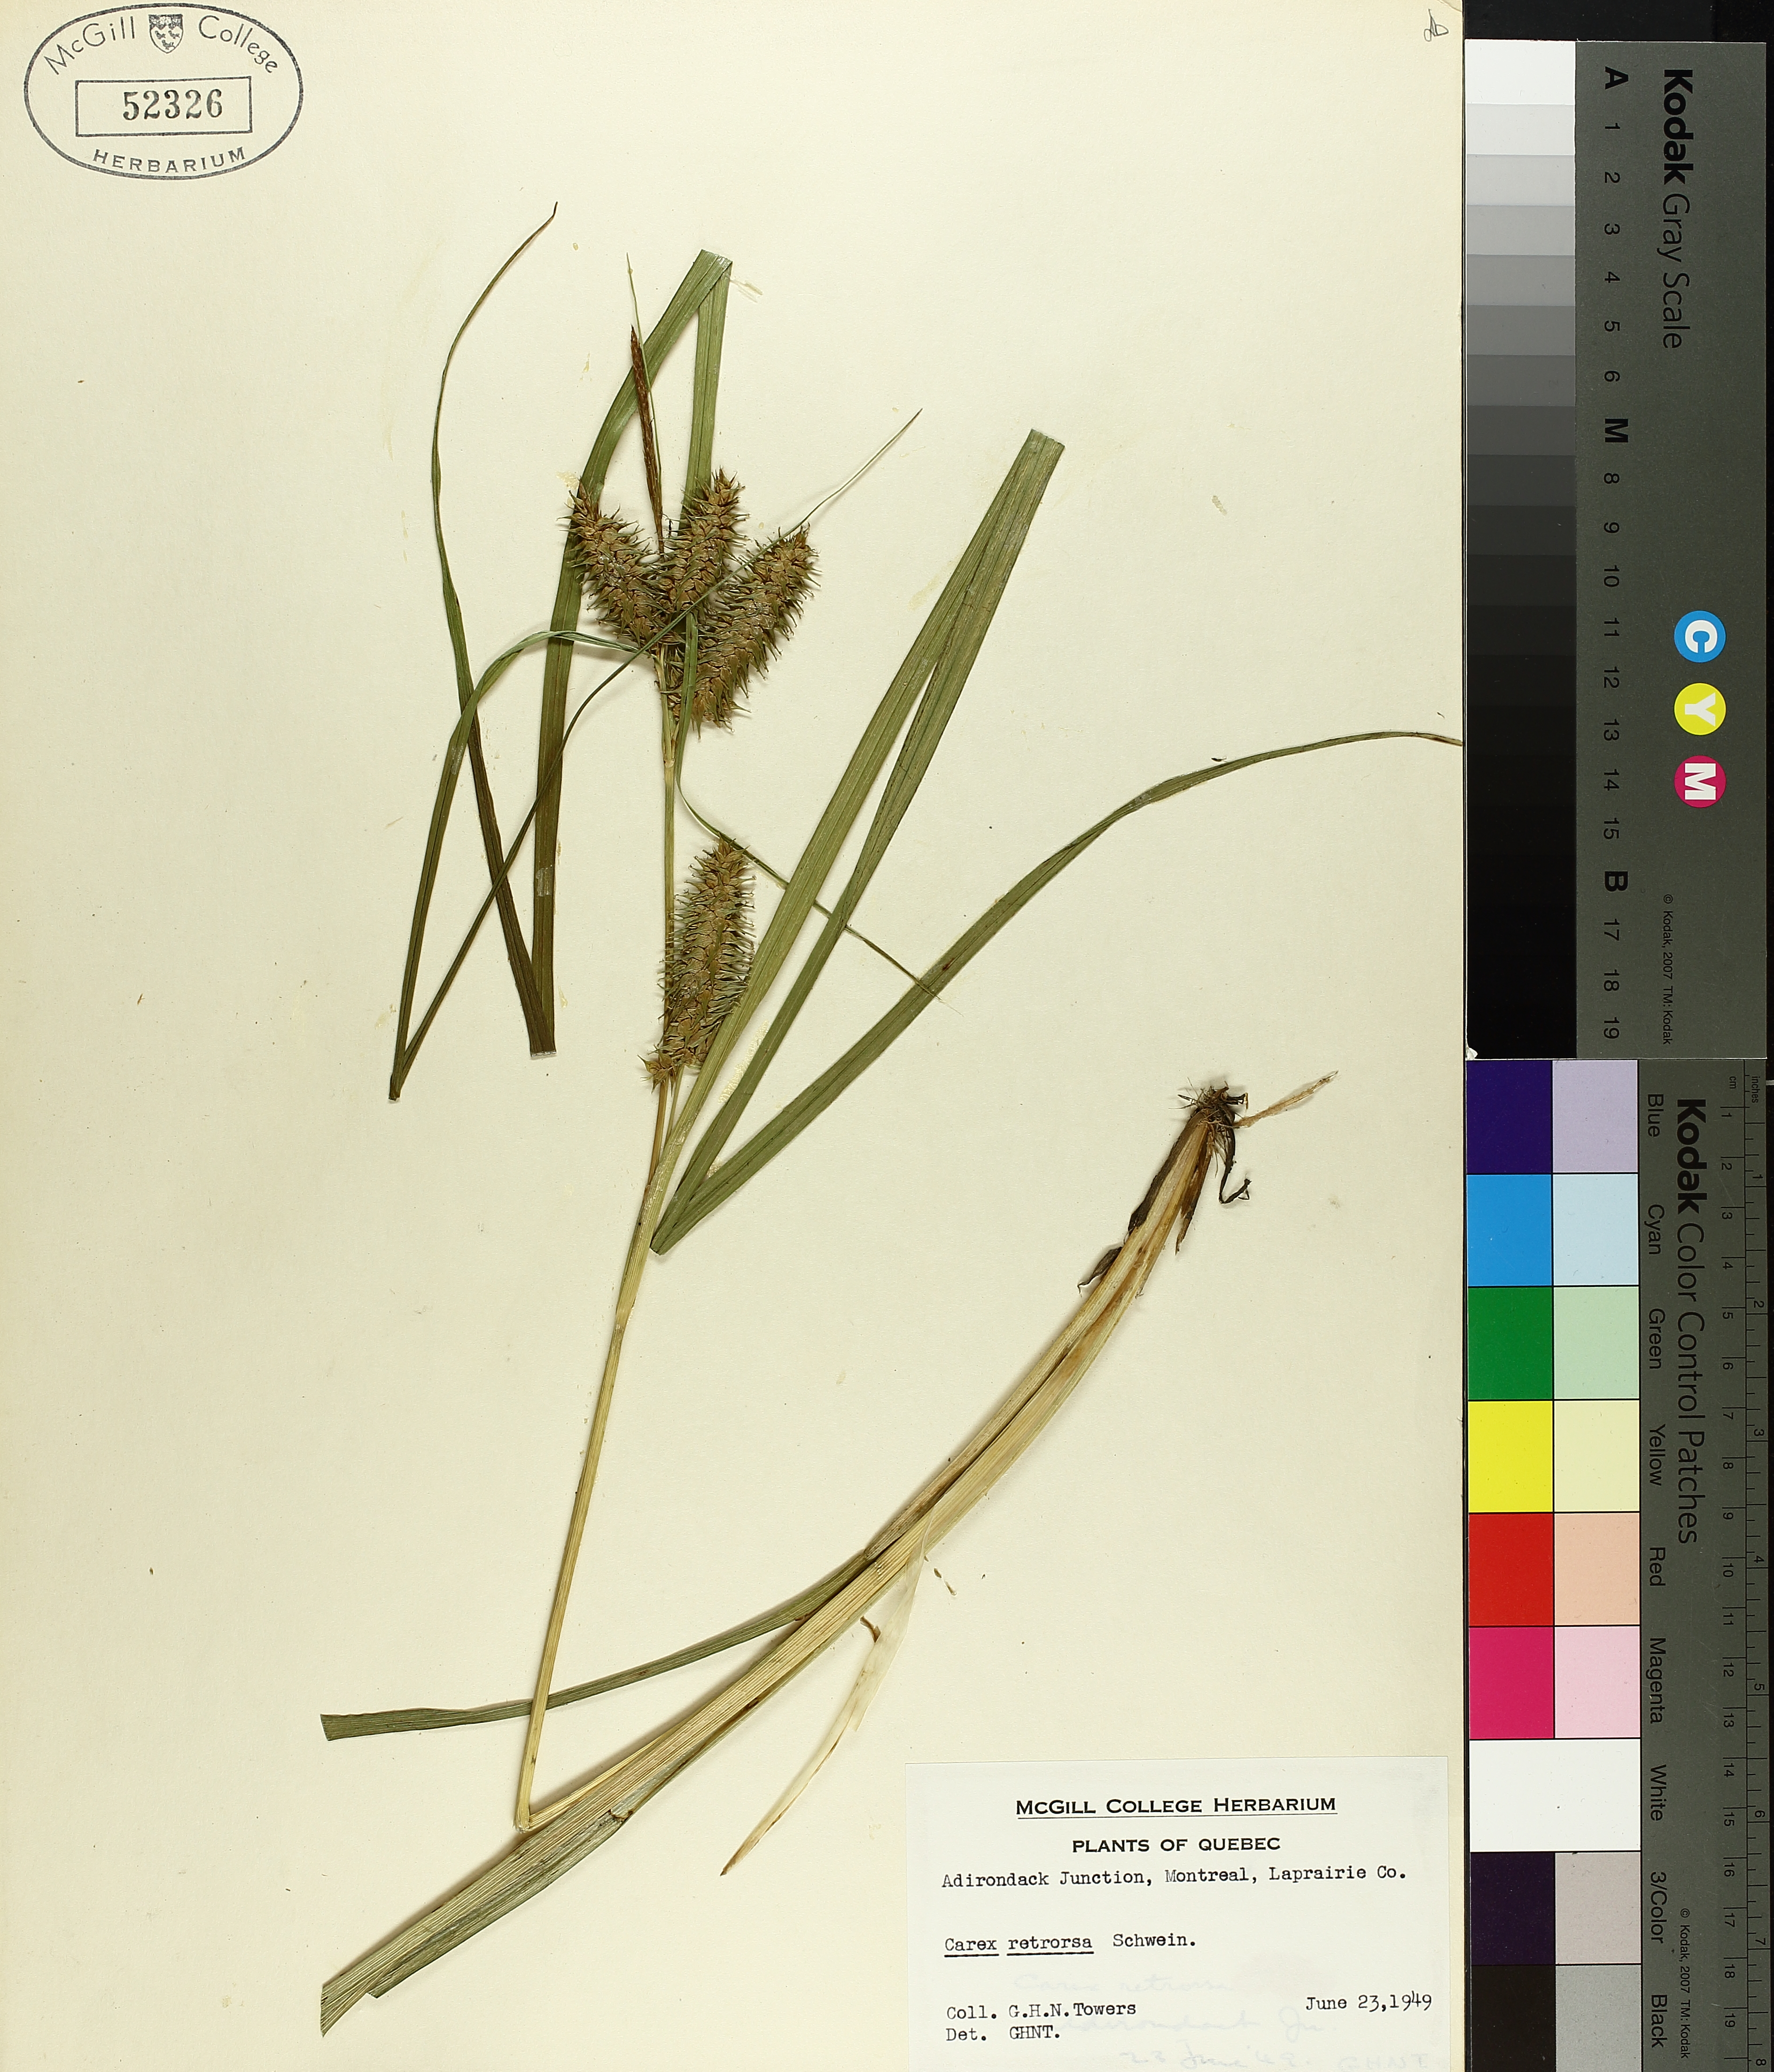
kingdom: Plantae
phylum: Tracheophyta
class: Liliopsida
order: Poales
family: Cyperaceae
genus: Carex
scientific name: Carex retrorsa
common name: Knot-sheath sedge
